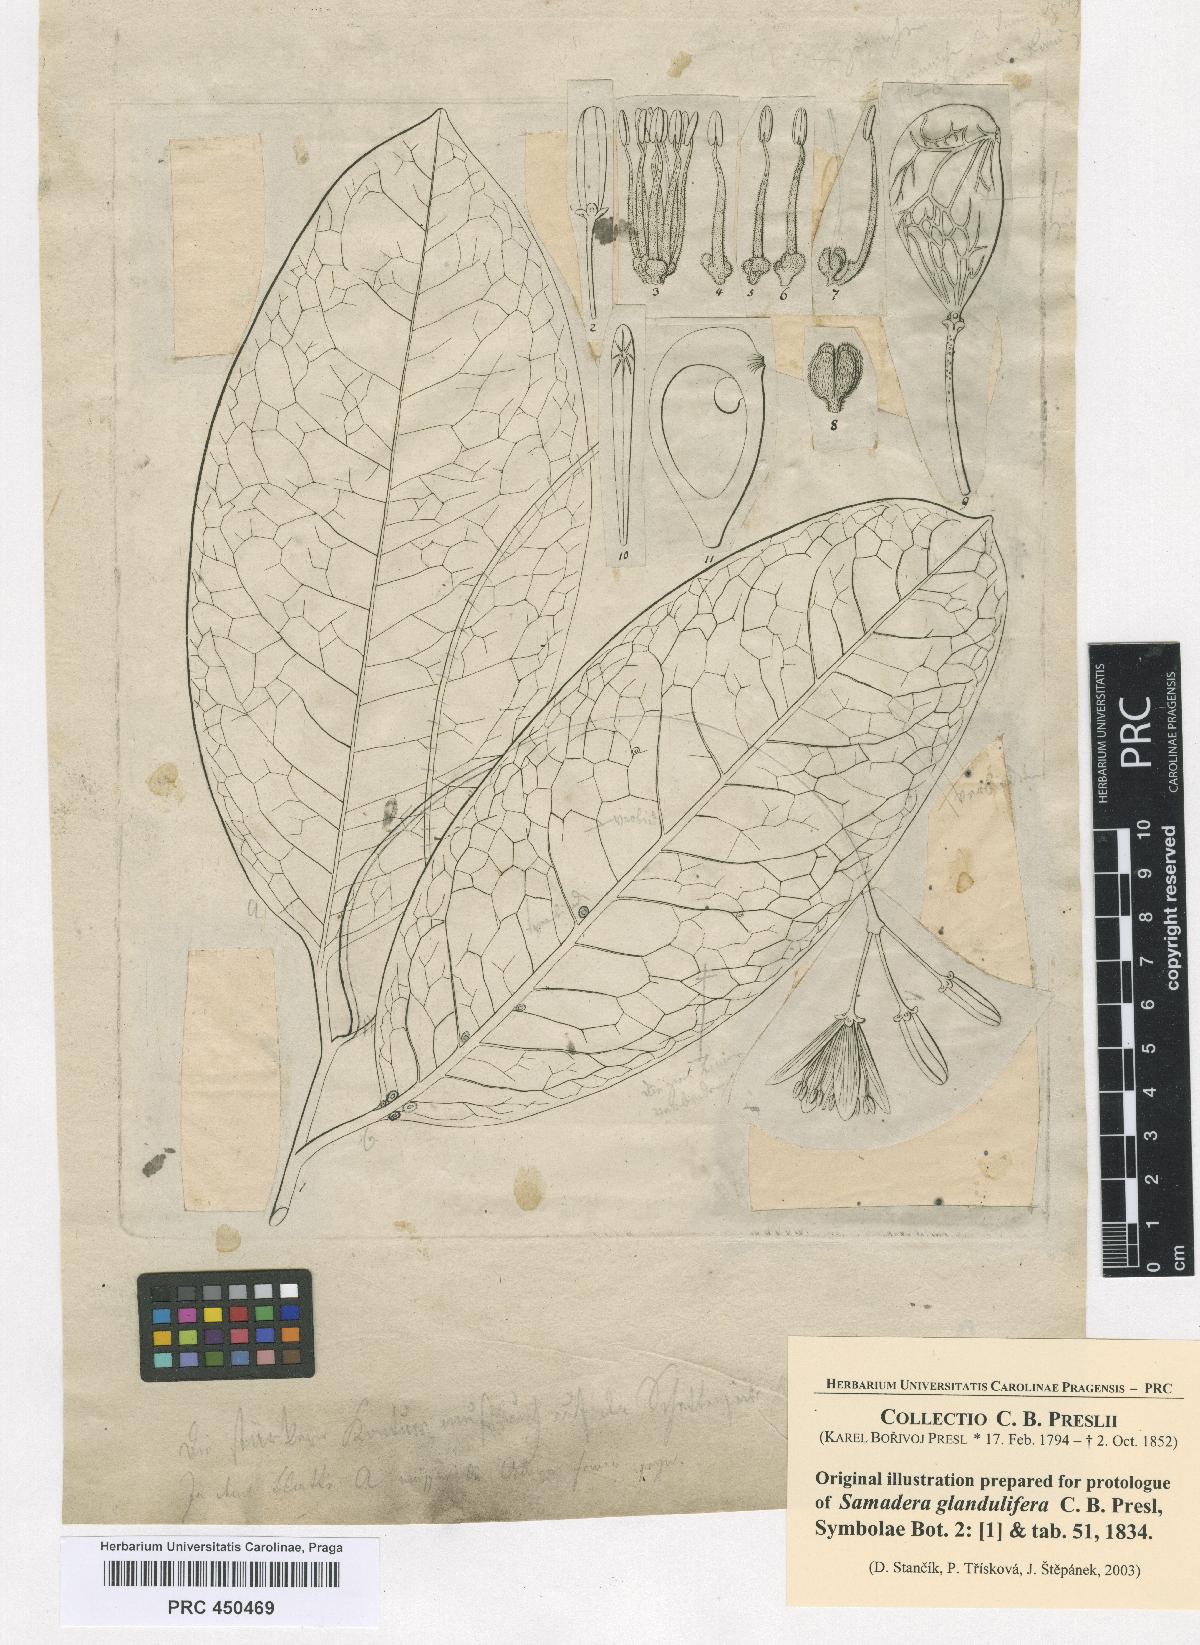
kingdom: Plantae
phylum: Tracheophyta
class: Magnoliopsida
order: Sapindales
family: Simaroubaceae
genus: Samadera
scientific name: Samadera indica
